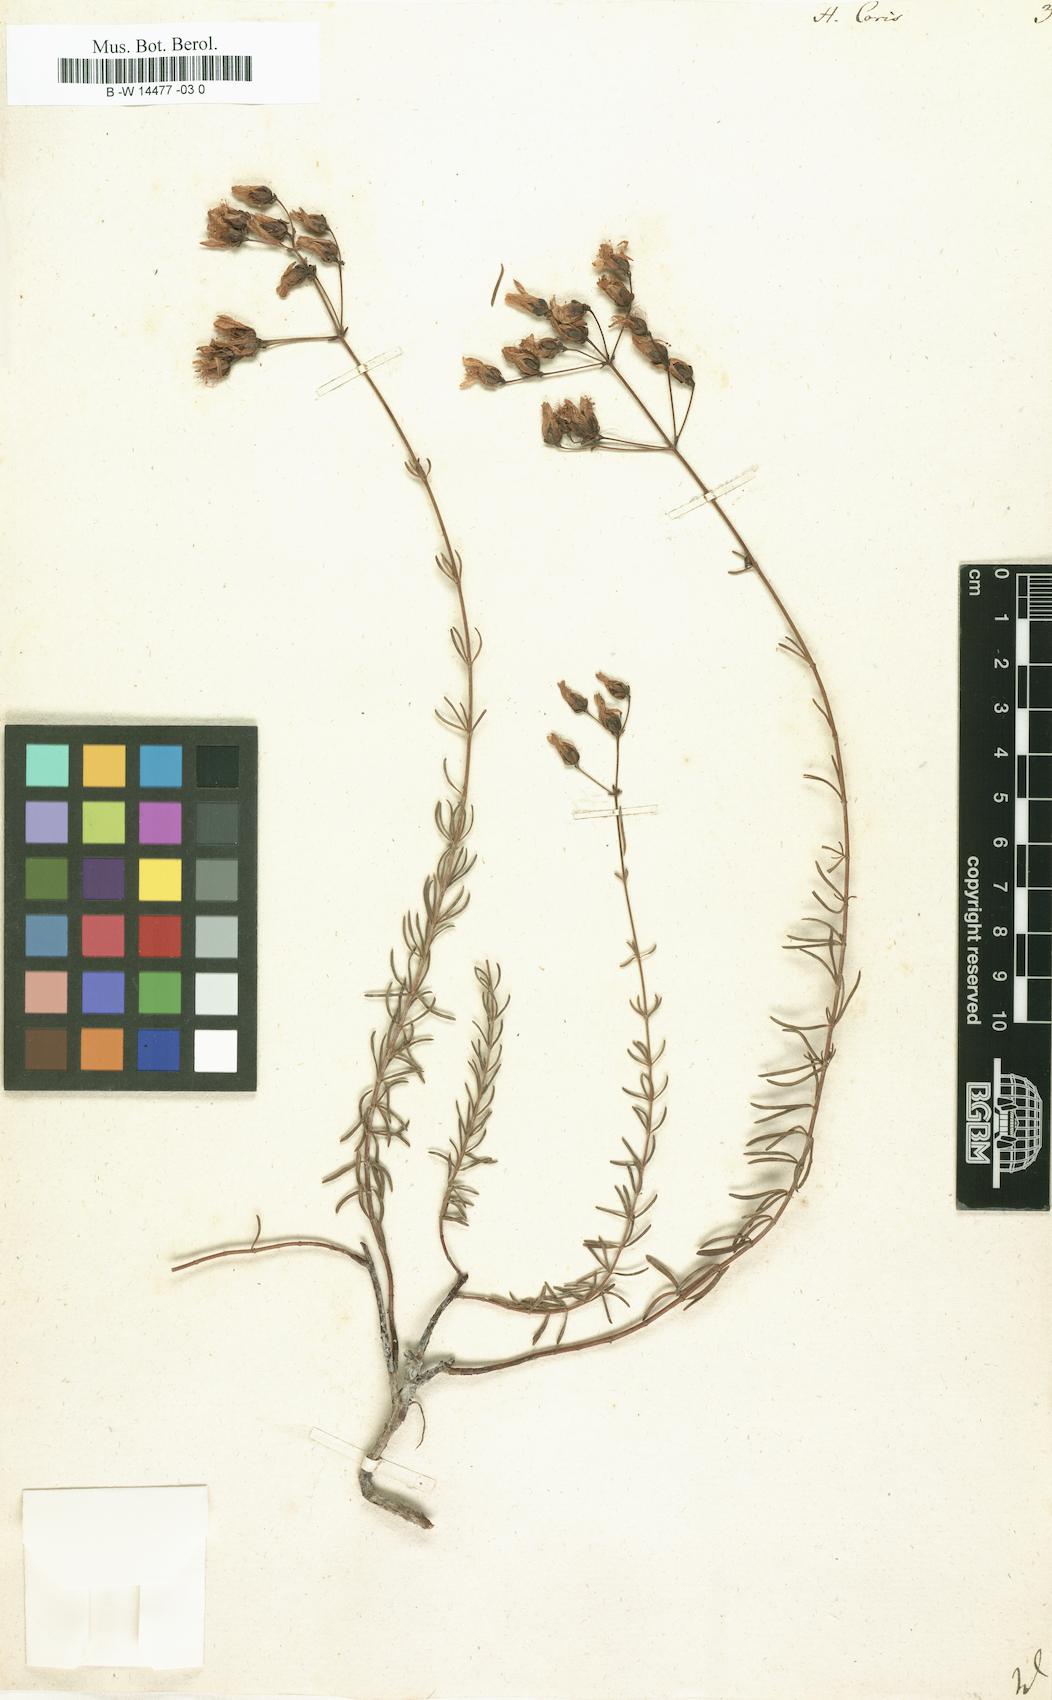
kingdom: Plantae
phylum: Tracheophyta
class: Magnoliopsida
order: Malpighiales
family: Hypericaceae
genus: Hypericum
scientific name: Hypericum coris
